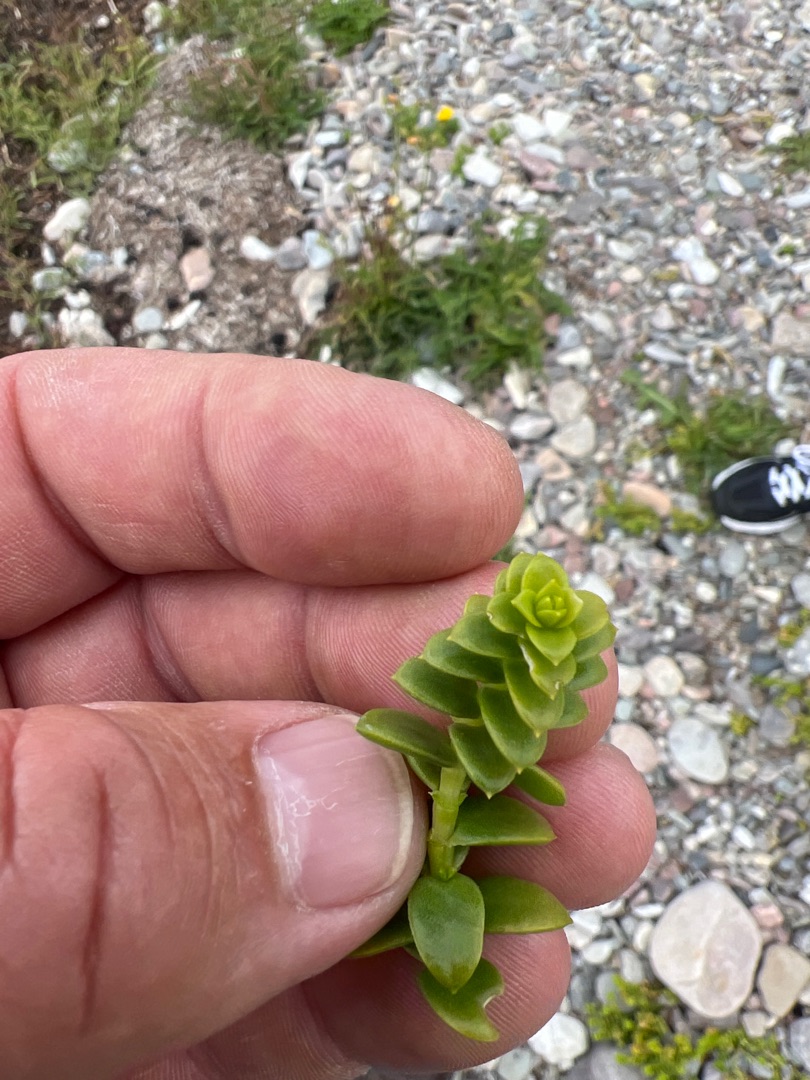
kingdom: Plantae
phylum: Tracheophyta
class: Magnoliopsida
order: Caryophyllales
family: Caryophyllaceae
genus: Honckenya
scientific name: Honckenya peploides
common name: Strandarve
